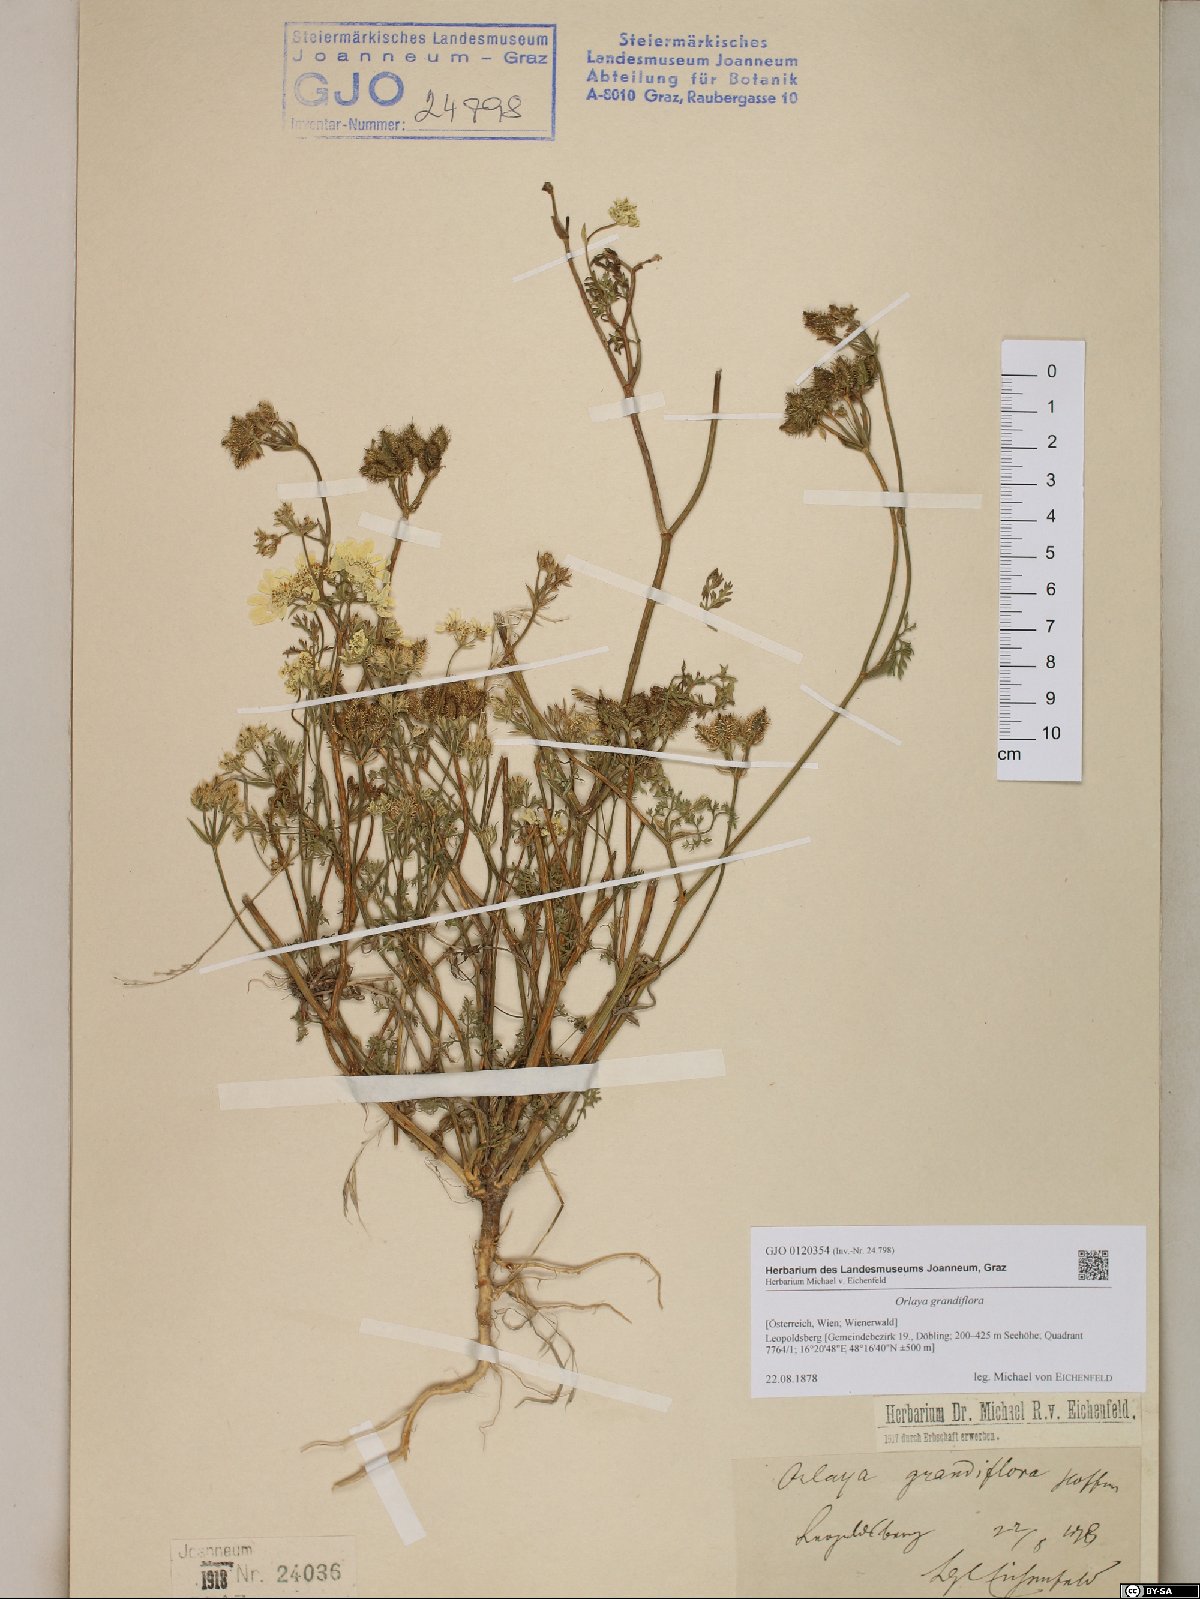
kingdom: Plantae
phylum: Tracheophyta
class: Magnoliopsida
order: Apiales
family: Apiaceae
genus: Orlaya
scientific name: Orlaya grandiflora
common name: White lace flower
